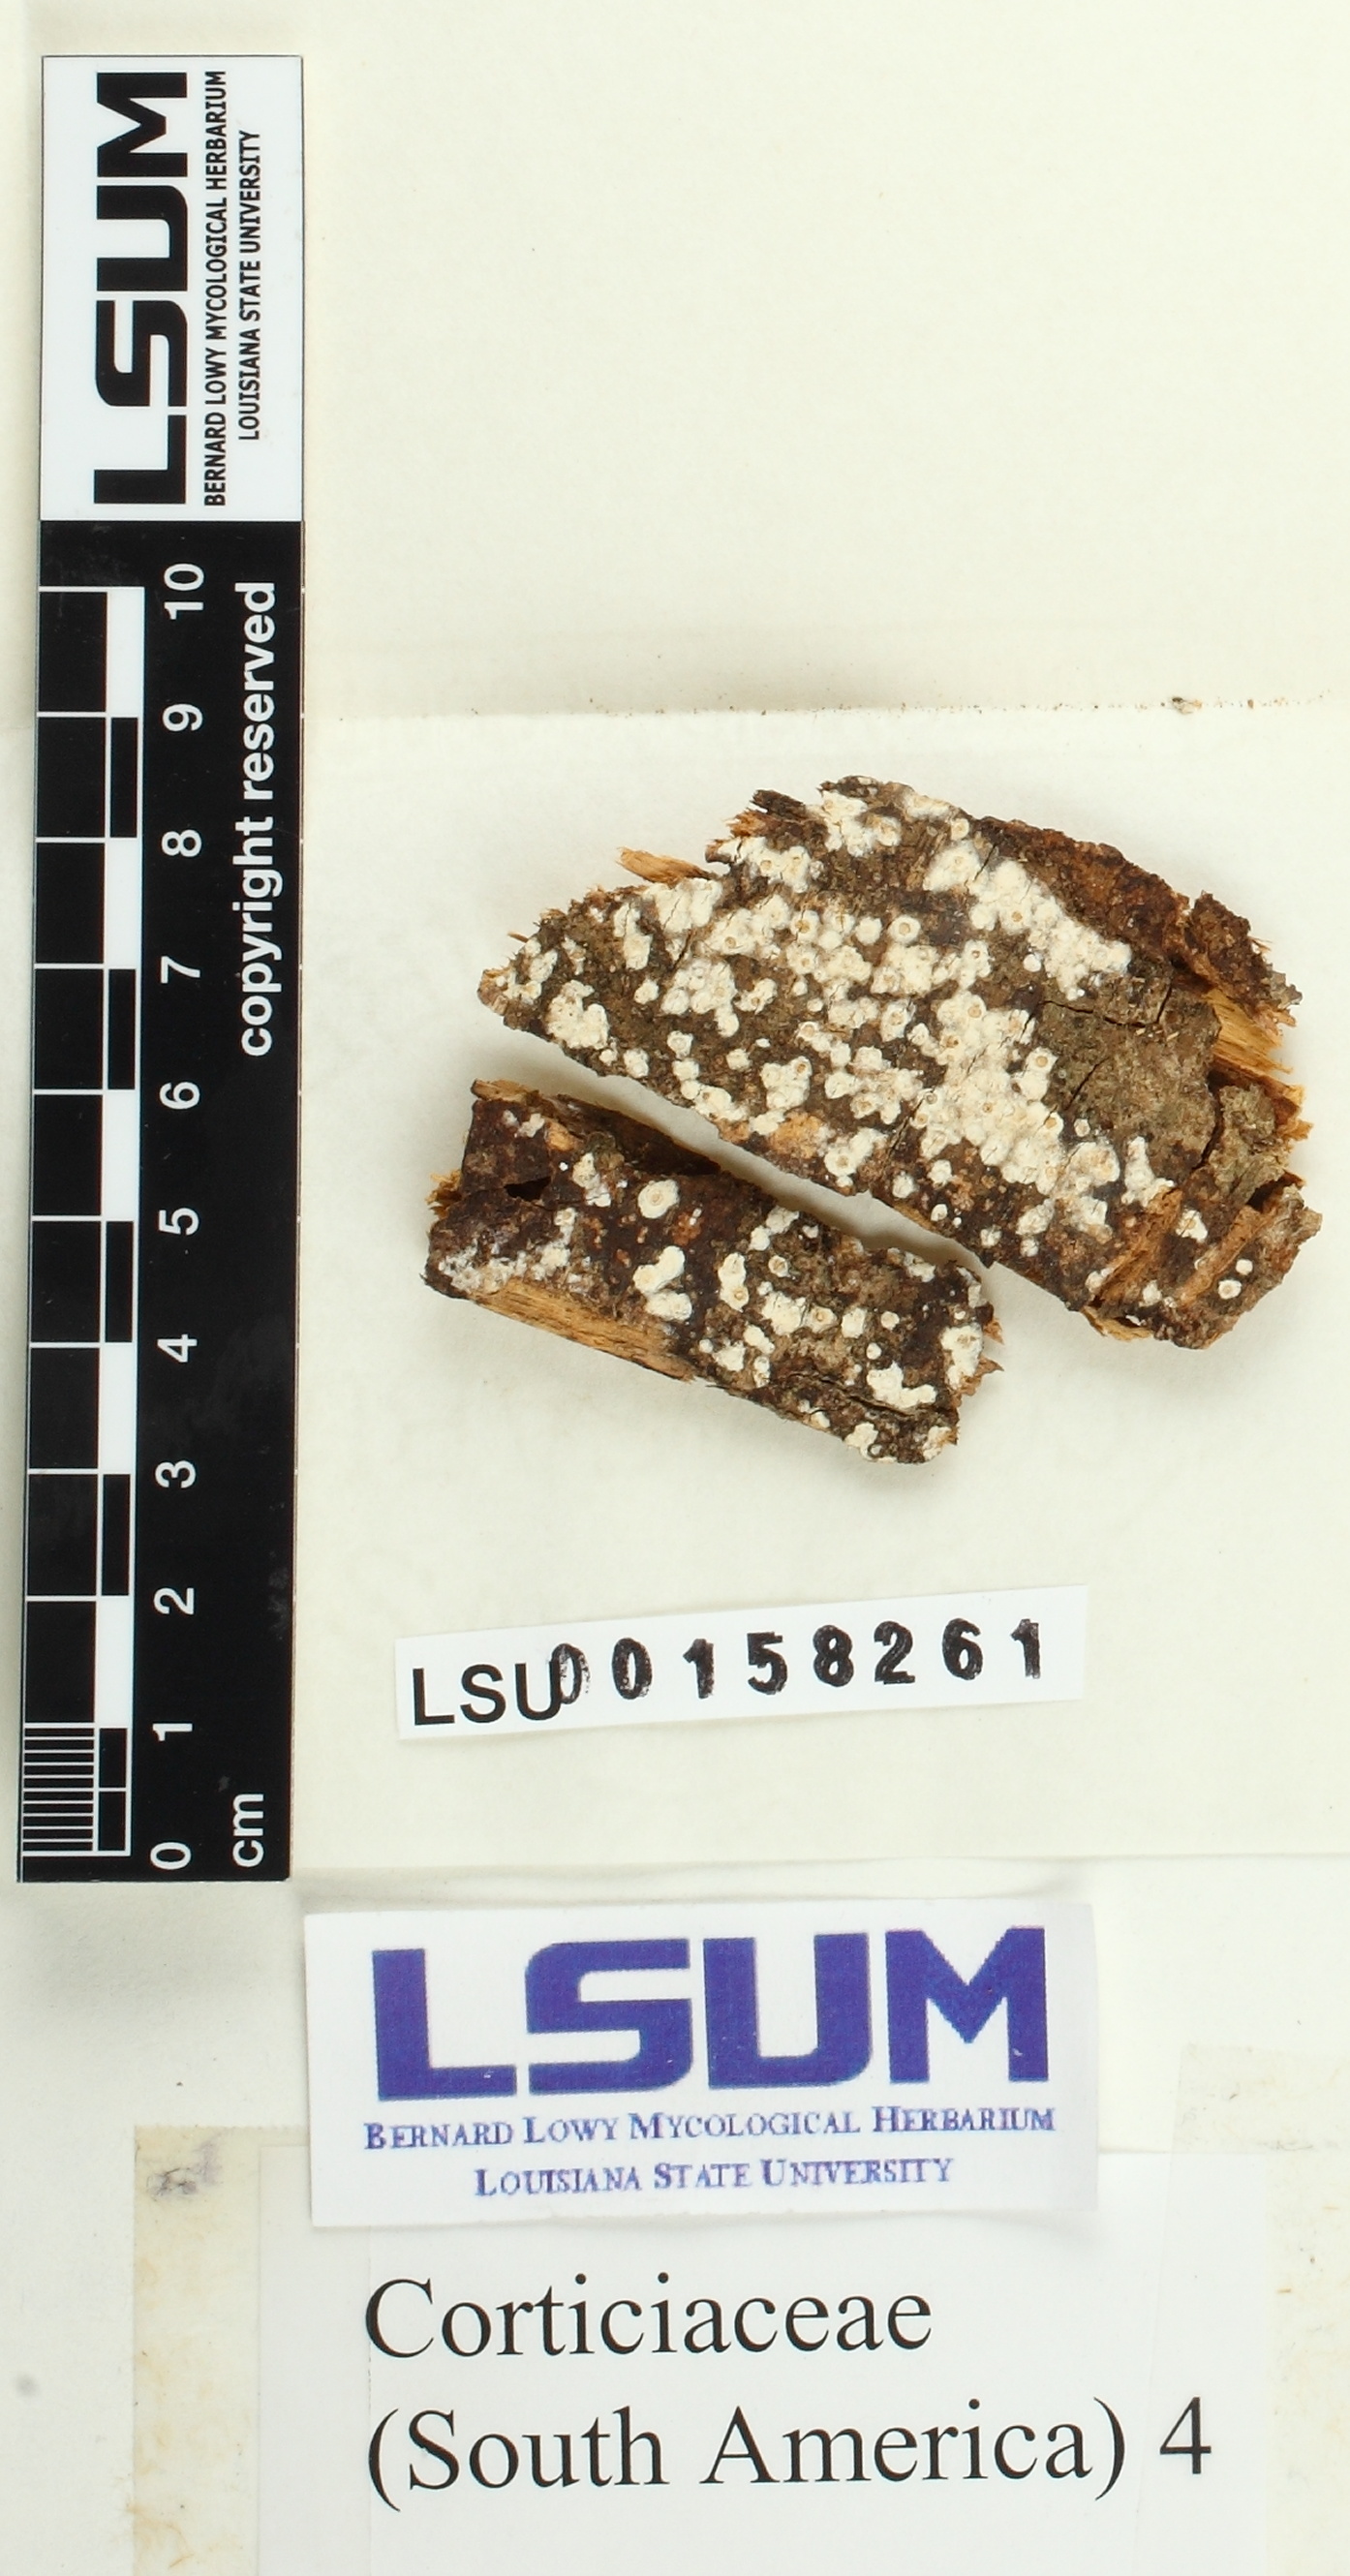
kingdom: Fungi
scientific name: Fungi
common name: Fungi
